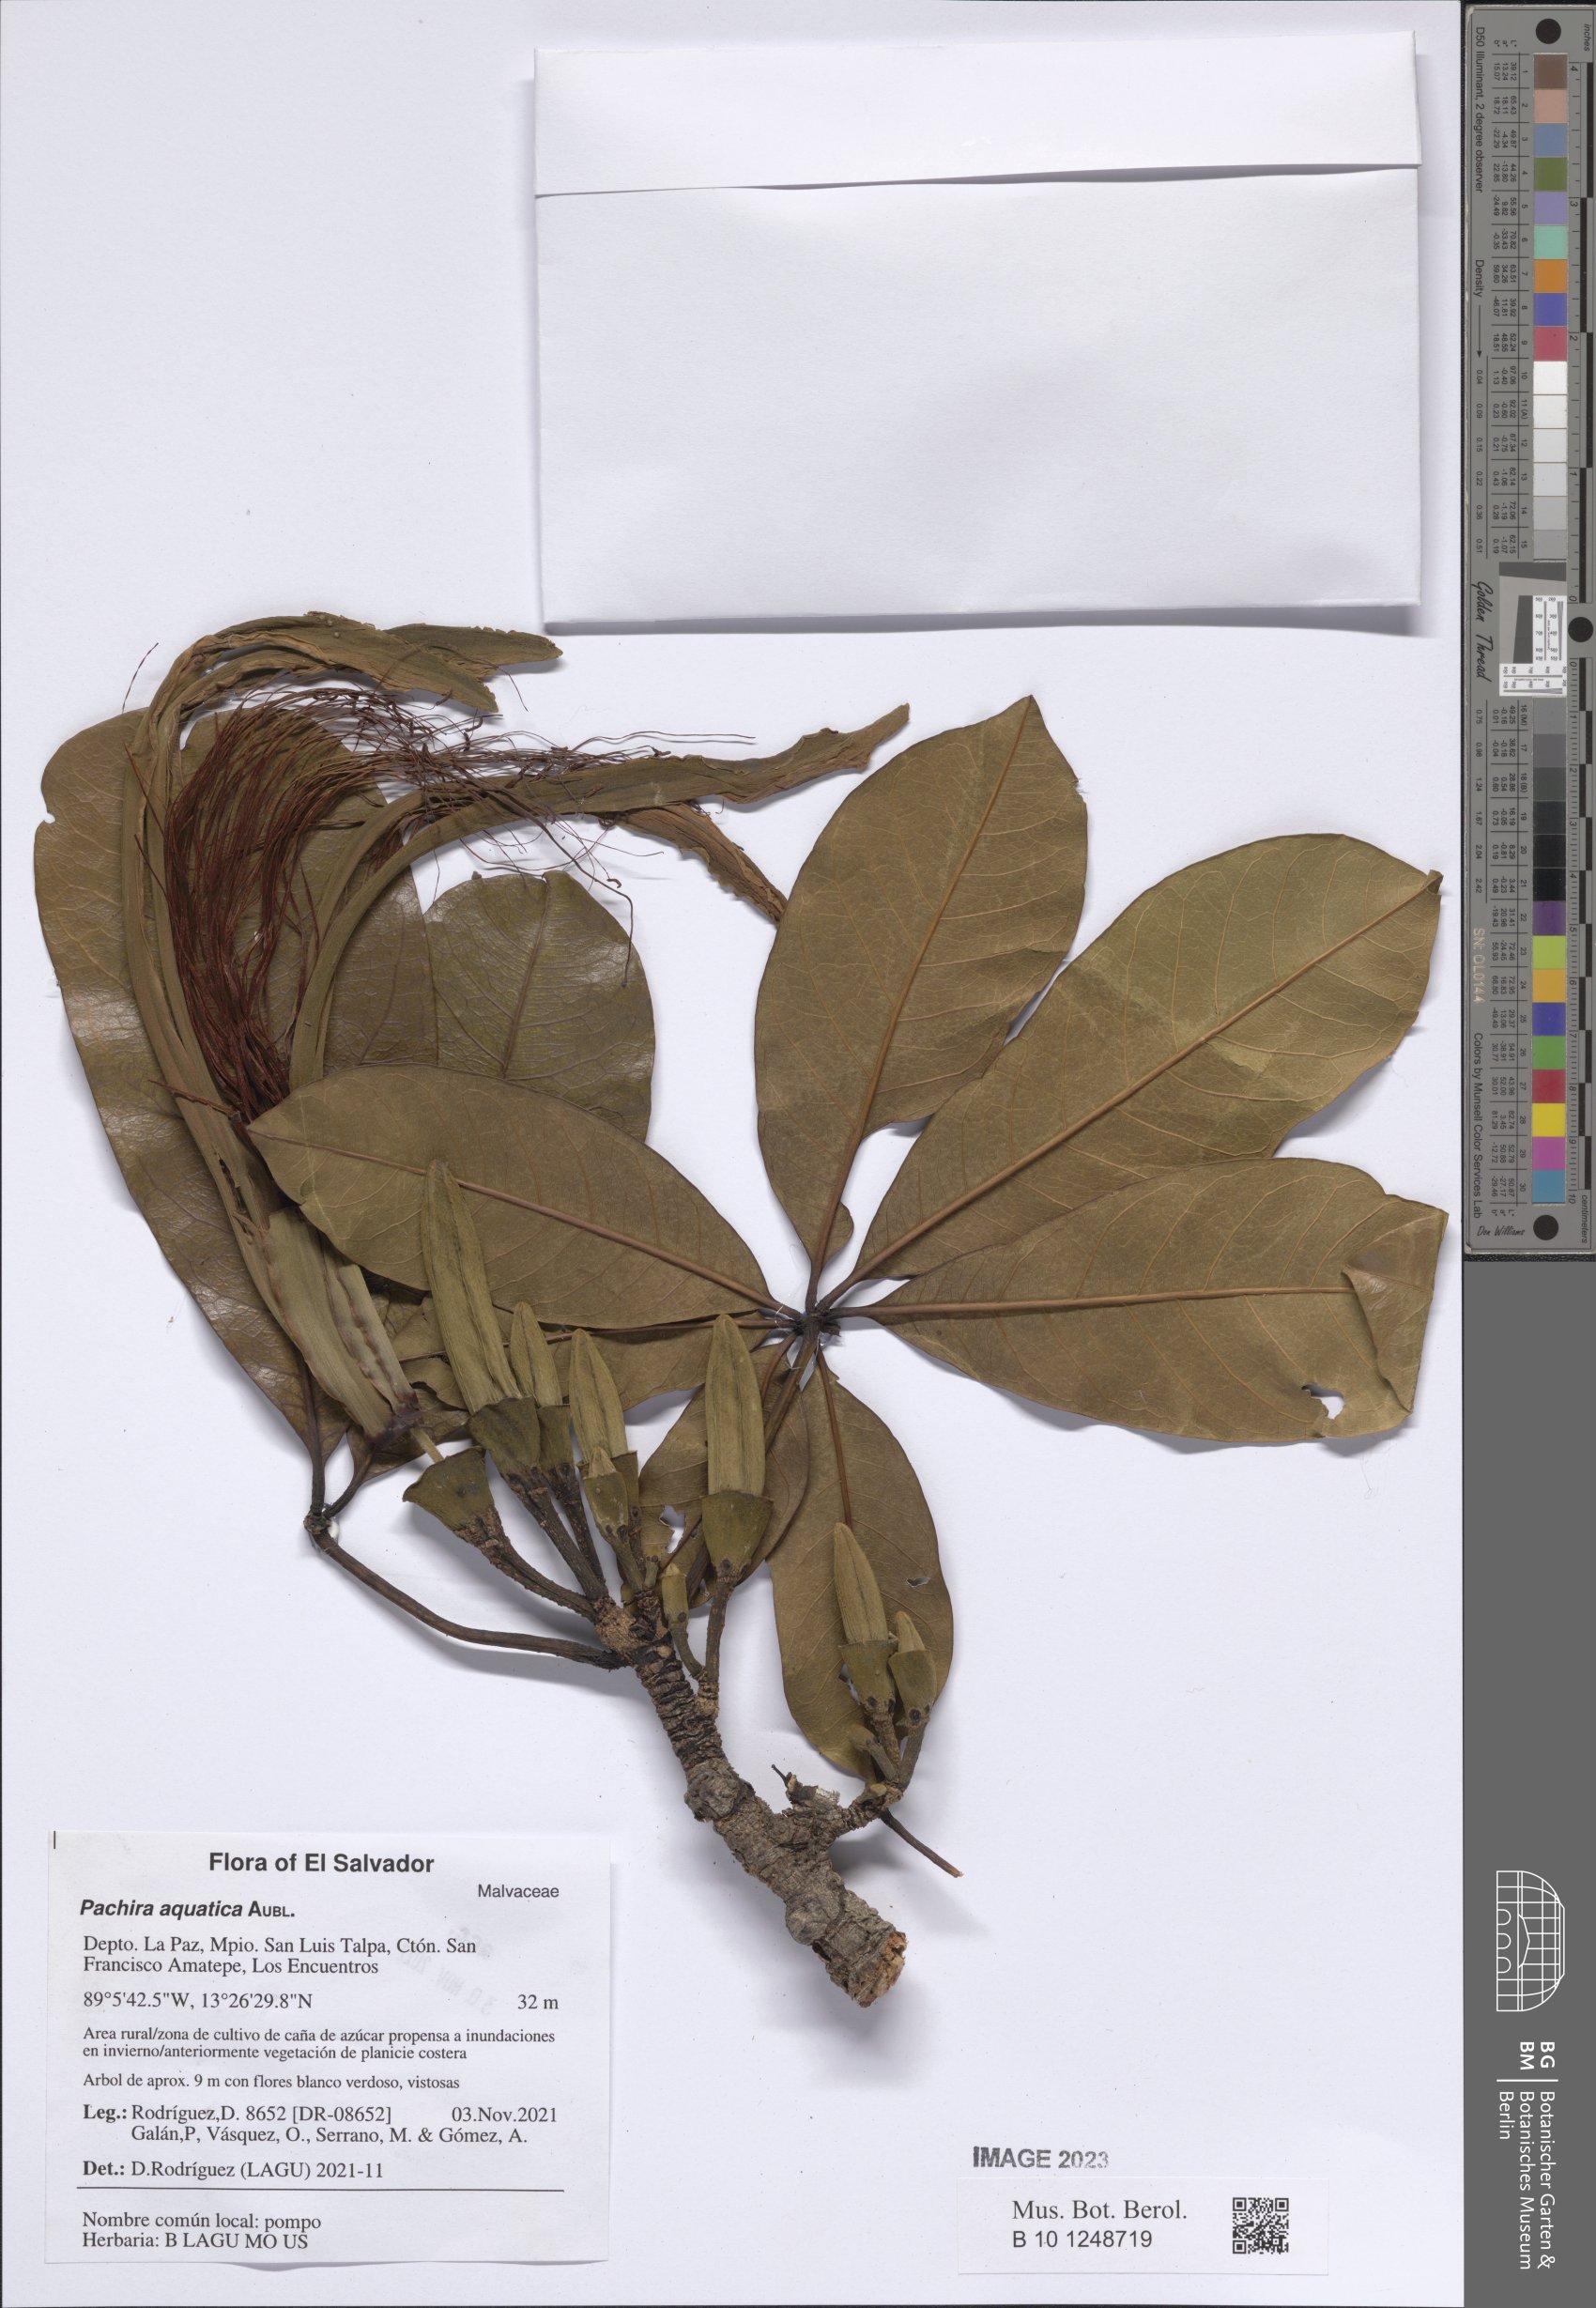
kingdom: Plantae
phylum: Tracheophyta
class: Magnoliopsida
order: Malvales
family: Malvaceae
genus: Pachira
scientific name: Pachira aquatica
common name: Provision-tree
